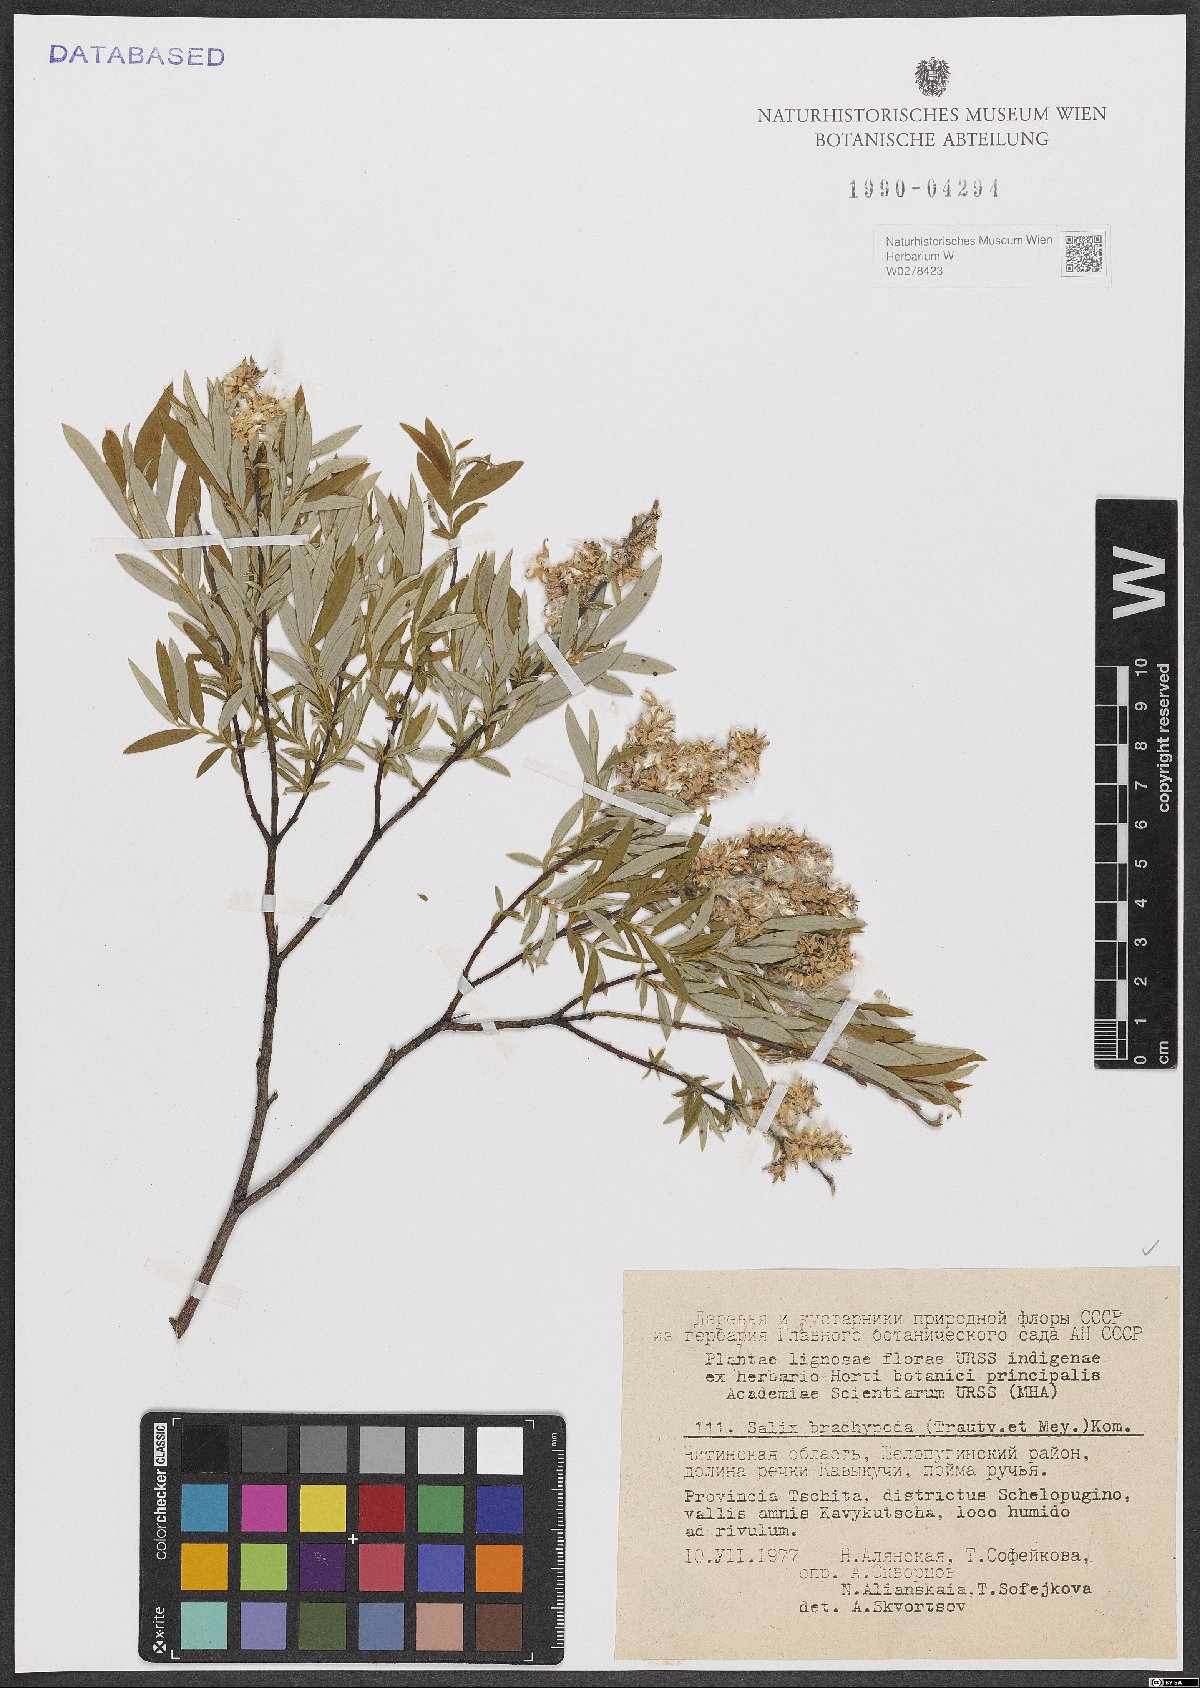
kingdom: Plantae
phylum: Tracheophyta
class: Magnoliopsida
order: Malpighiales
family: Salicaceae
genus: Salix
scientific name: Salix brachypoda
